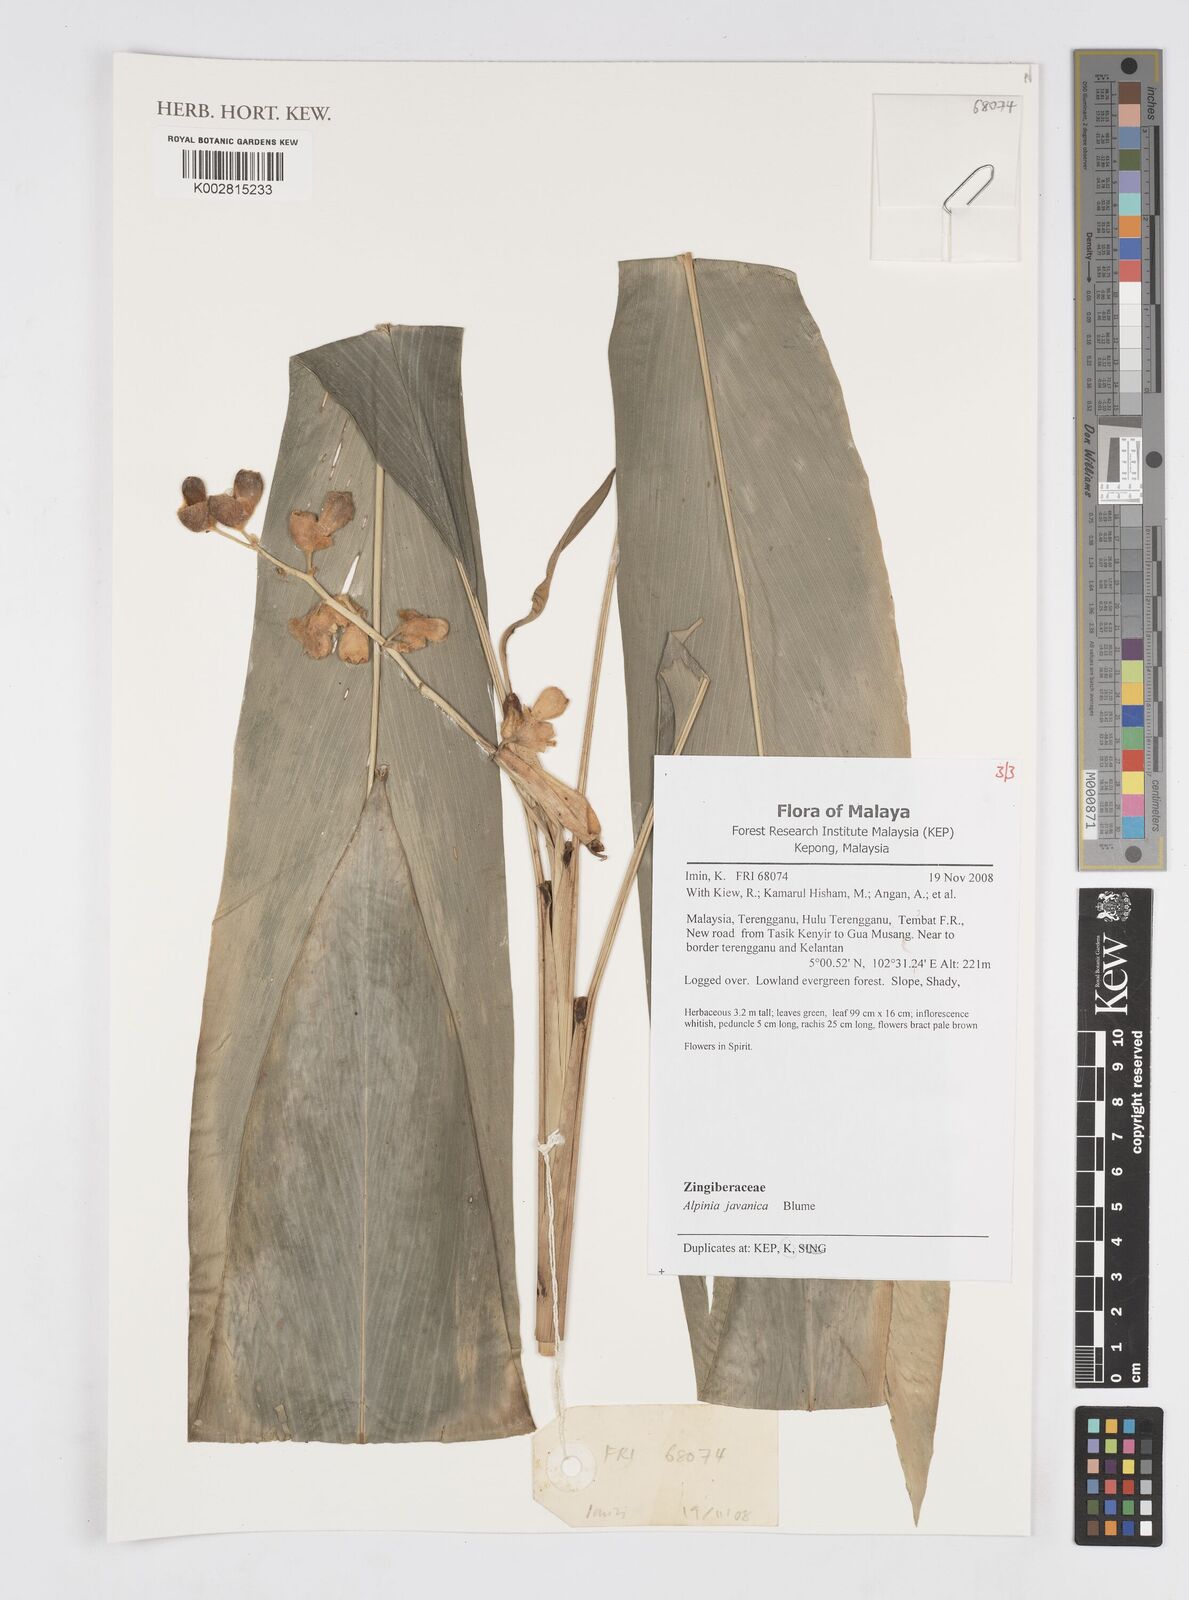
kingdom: Plantae
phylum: Tracheophyta
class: Liliopsida
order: Zingiberales
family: Zingiberaceae
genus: Alpinia
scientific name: Alpinia javanica
